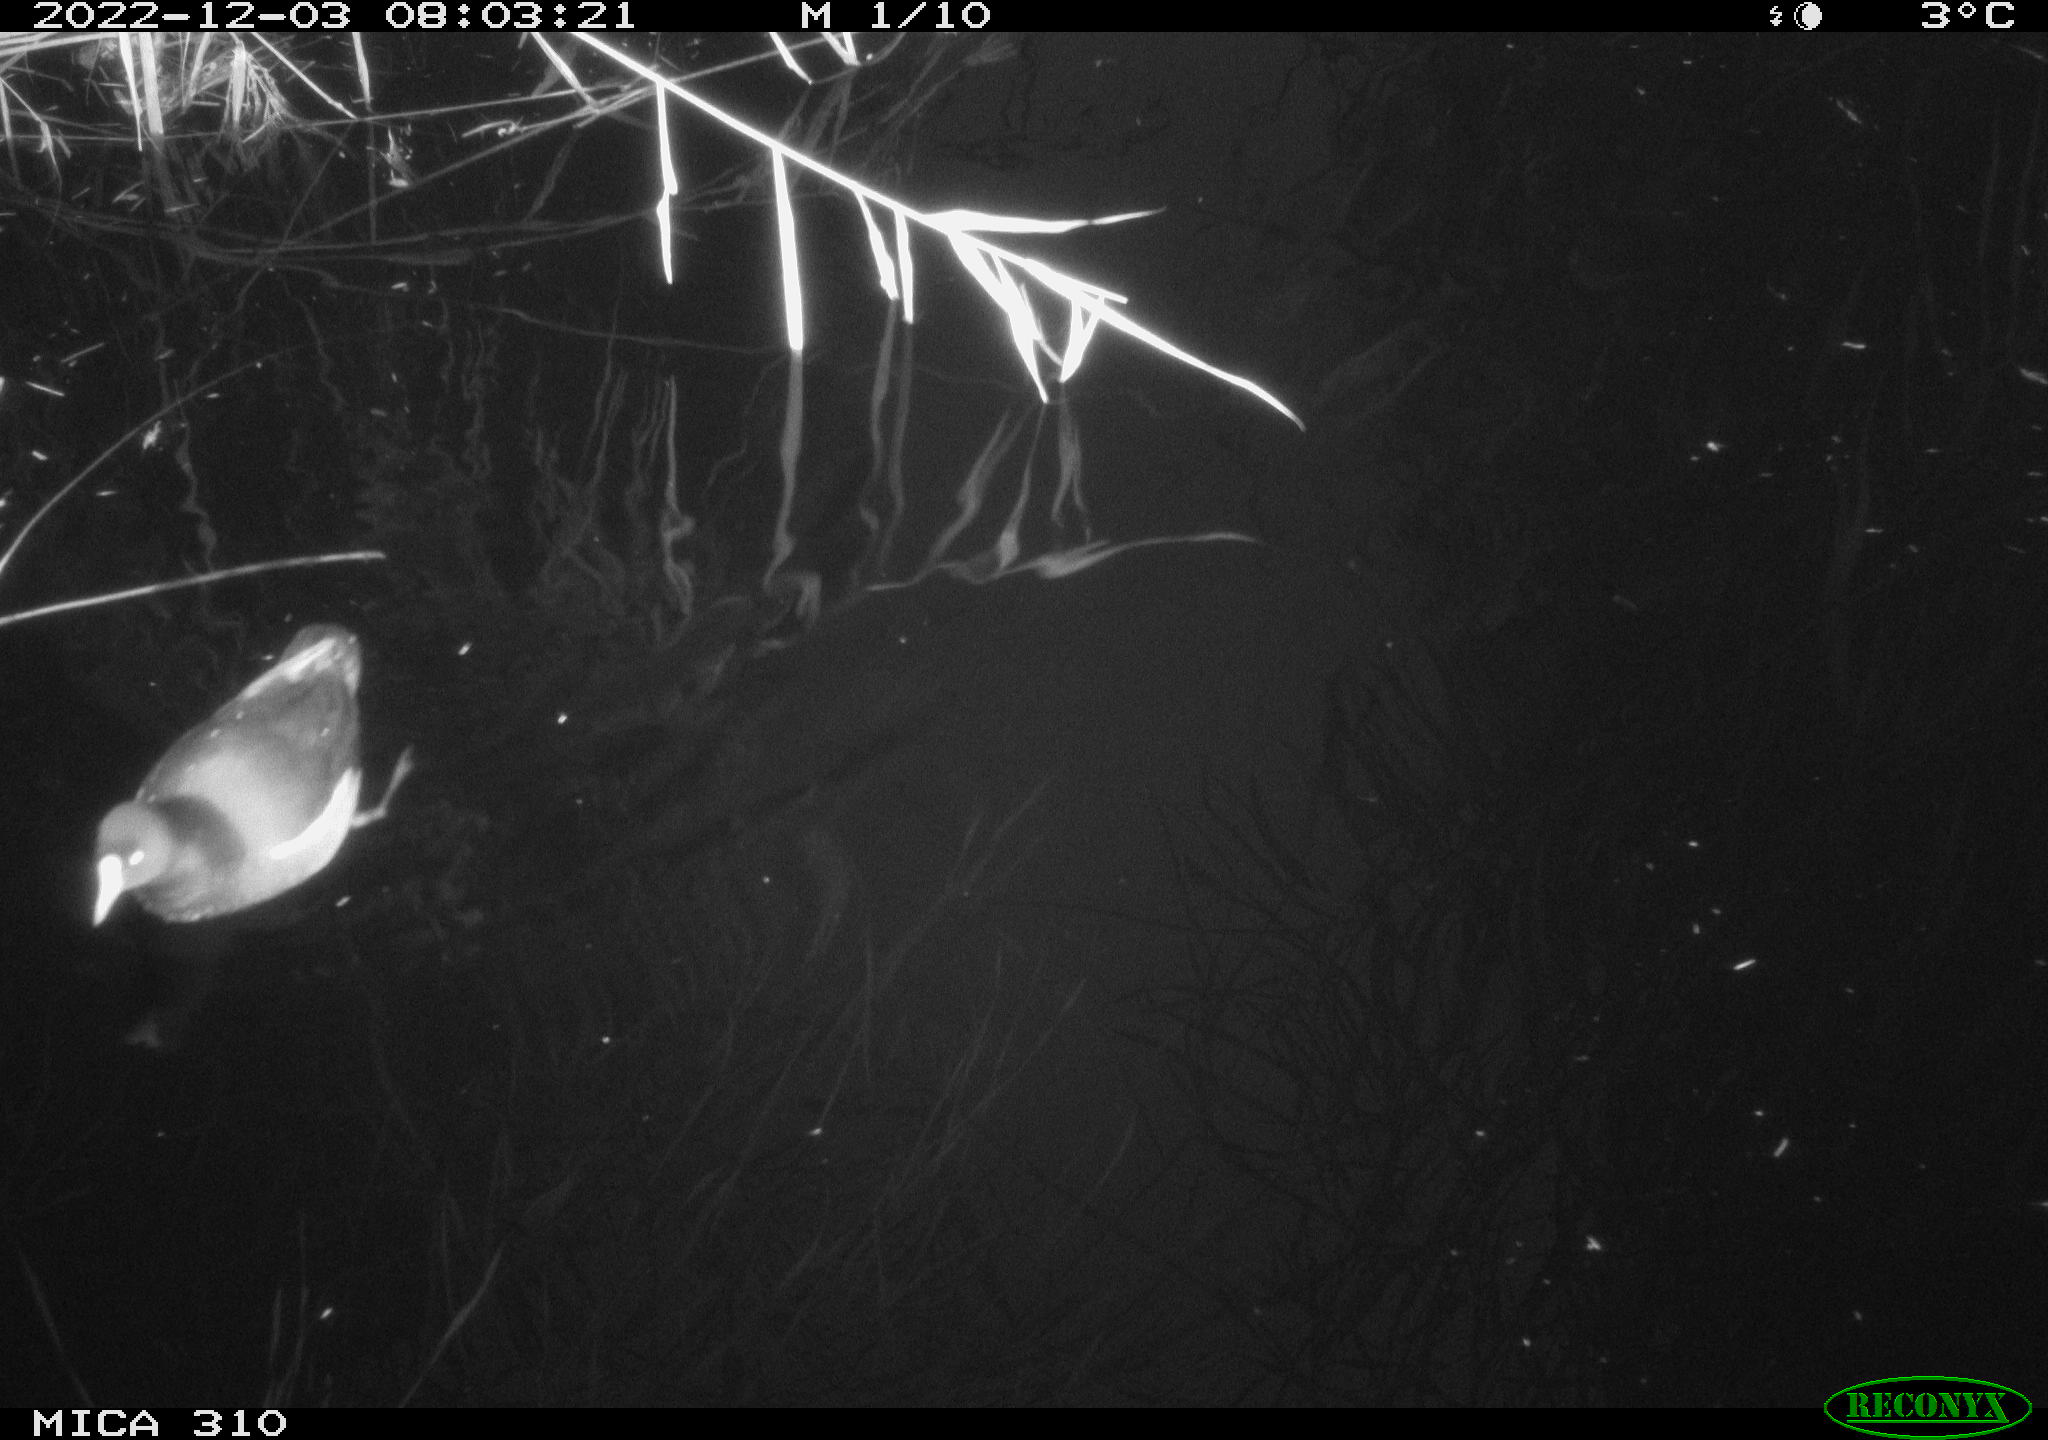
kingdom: Animalia
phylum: Chordata
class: Aves
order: Gruiformes
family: Rallidae
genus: Gallinula
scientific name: Gallinula chloropus
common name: Common moorhen
